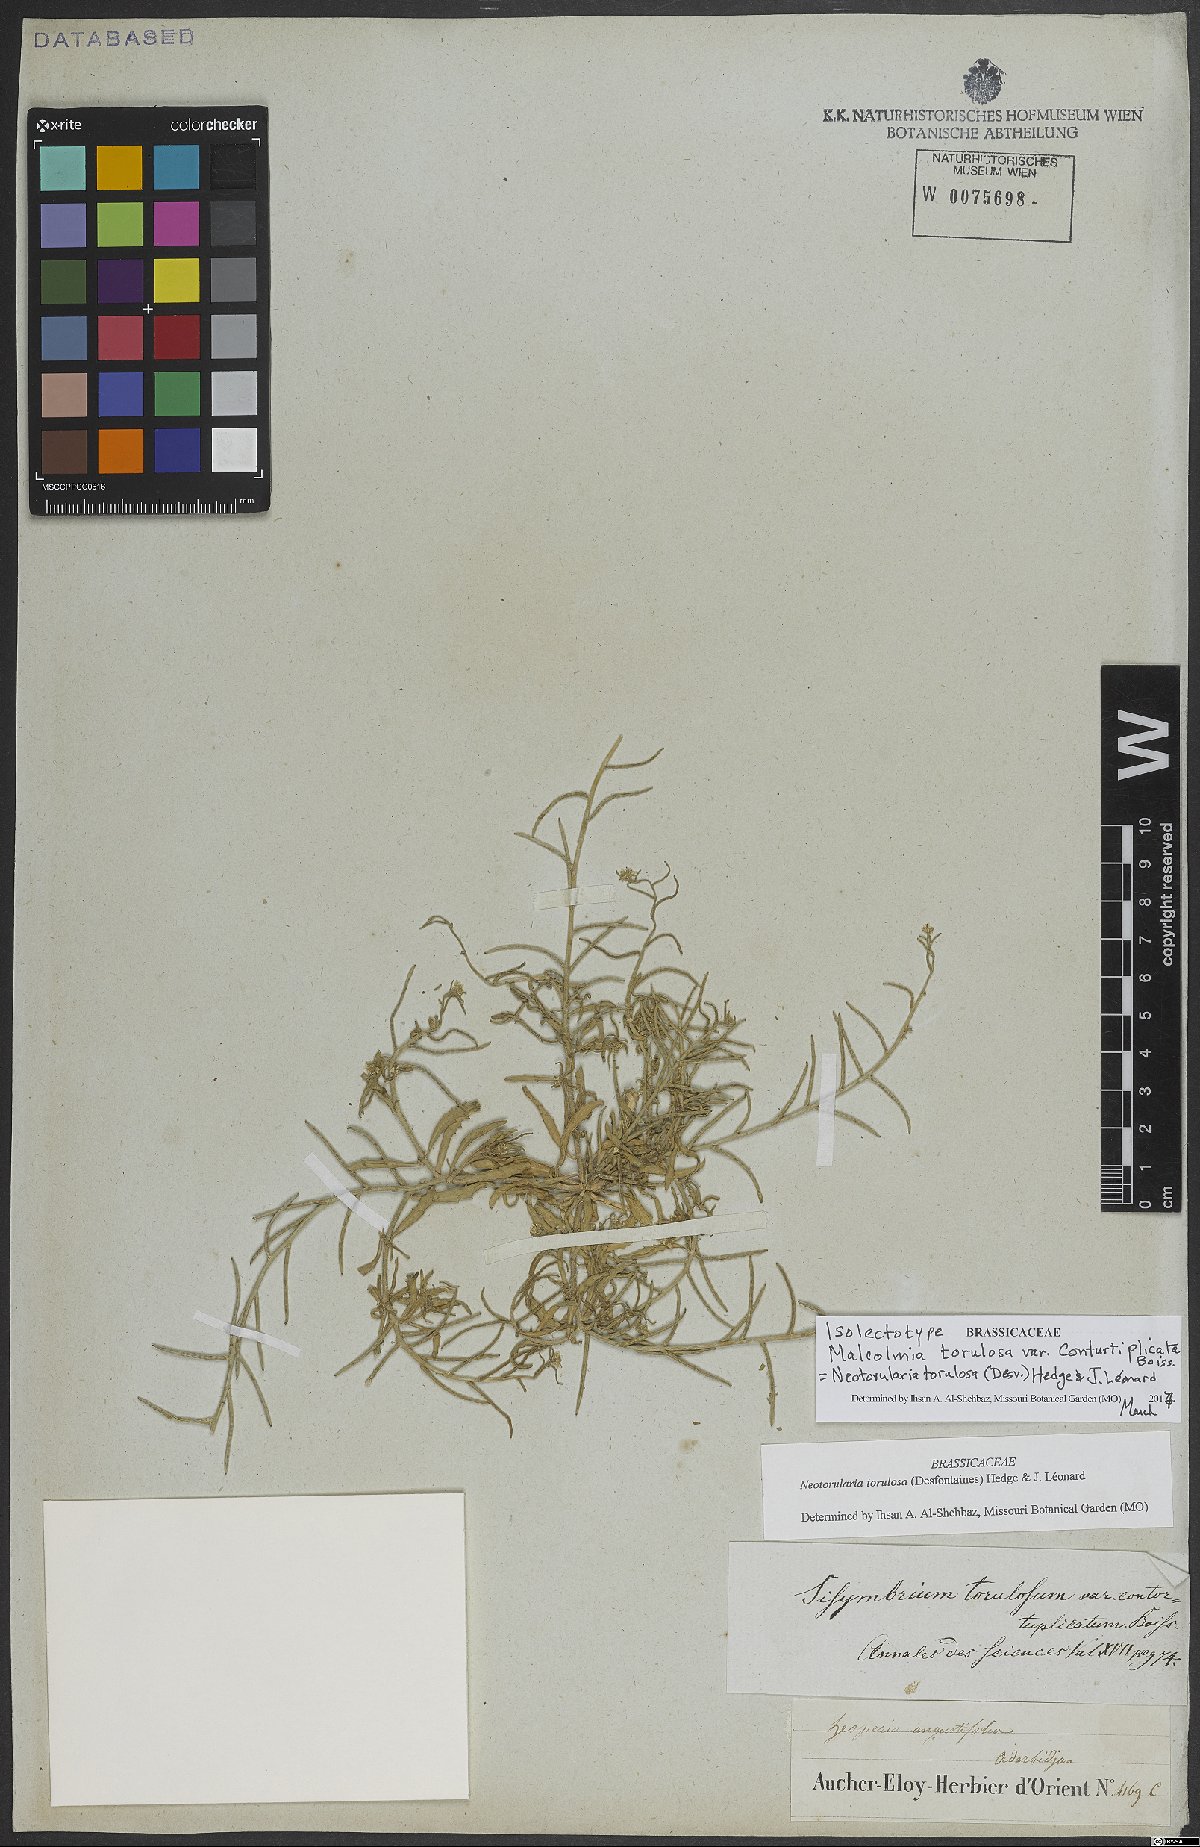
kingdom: Plantae
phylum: Tracheophyta
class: Magnoliopsida
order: Brassicales
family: Brassicaceae
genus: Neotorularia
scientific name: Neotorularia torulosa
